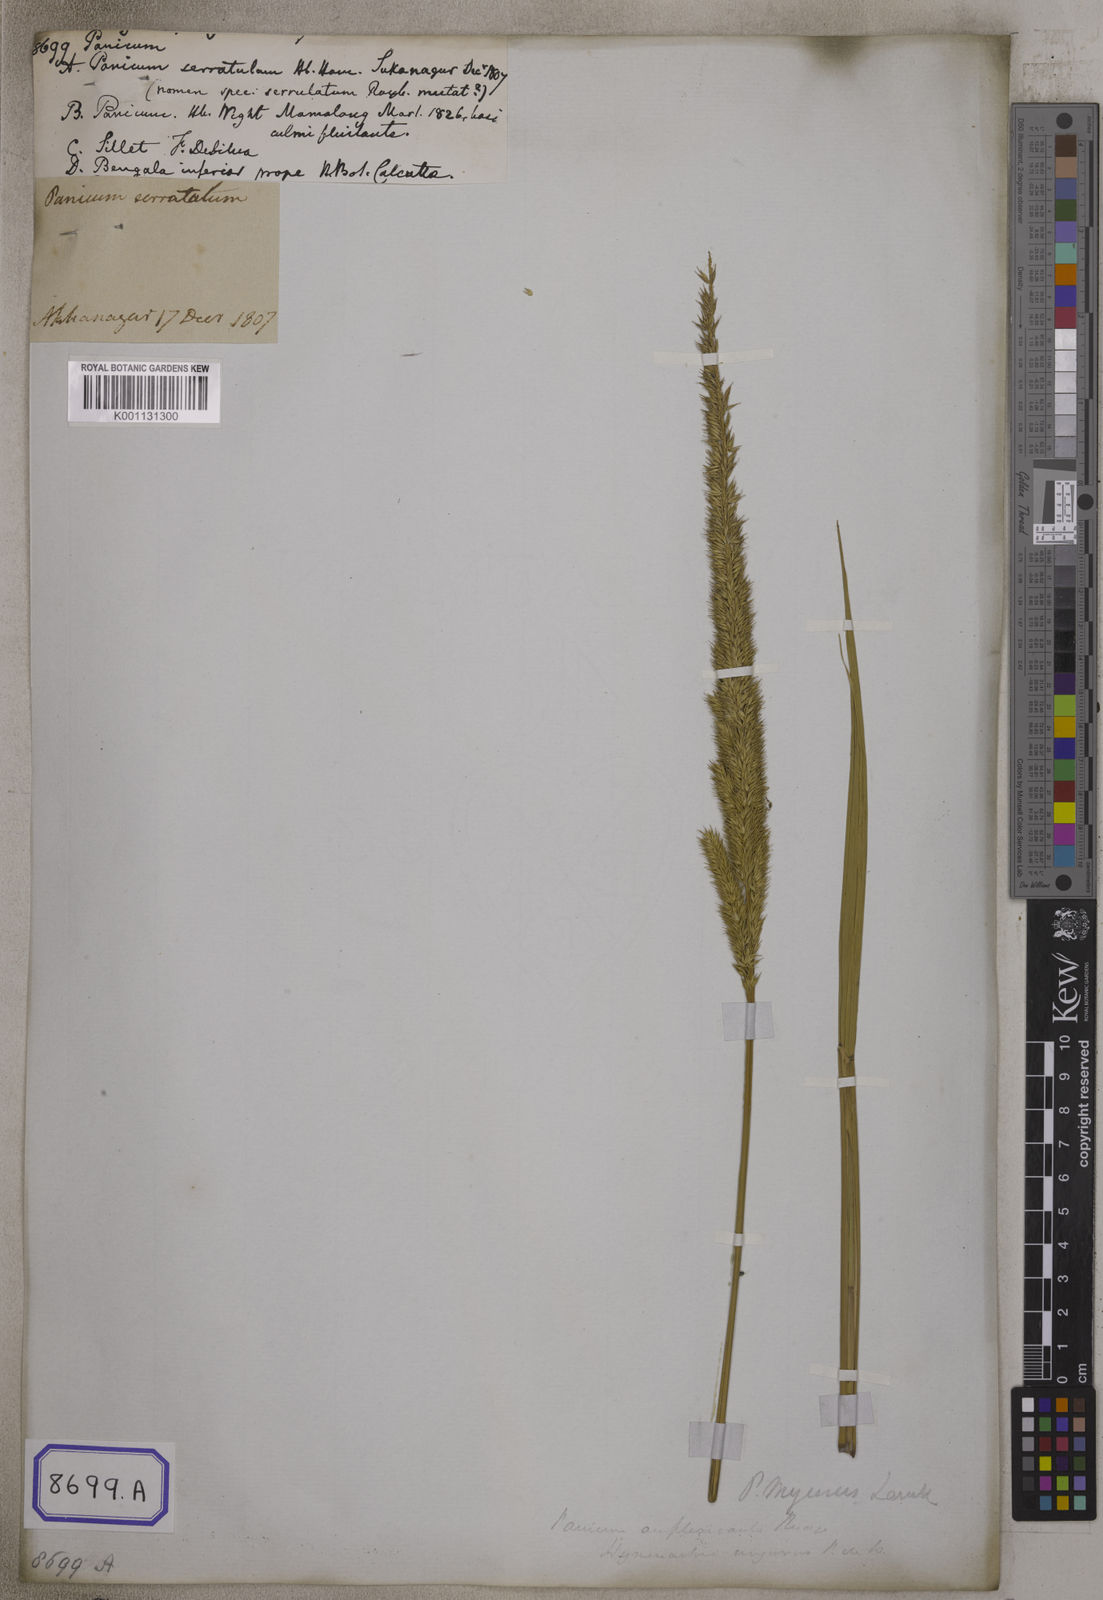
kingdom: Plantae
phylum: Tracheophyta
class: Liliopsida
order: Poales
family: Poaceae
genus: Panicum
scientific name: Panicum
